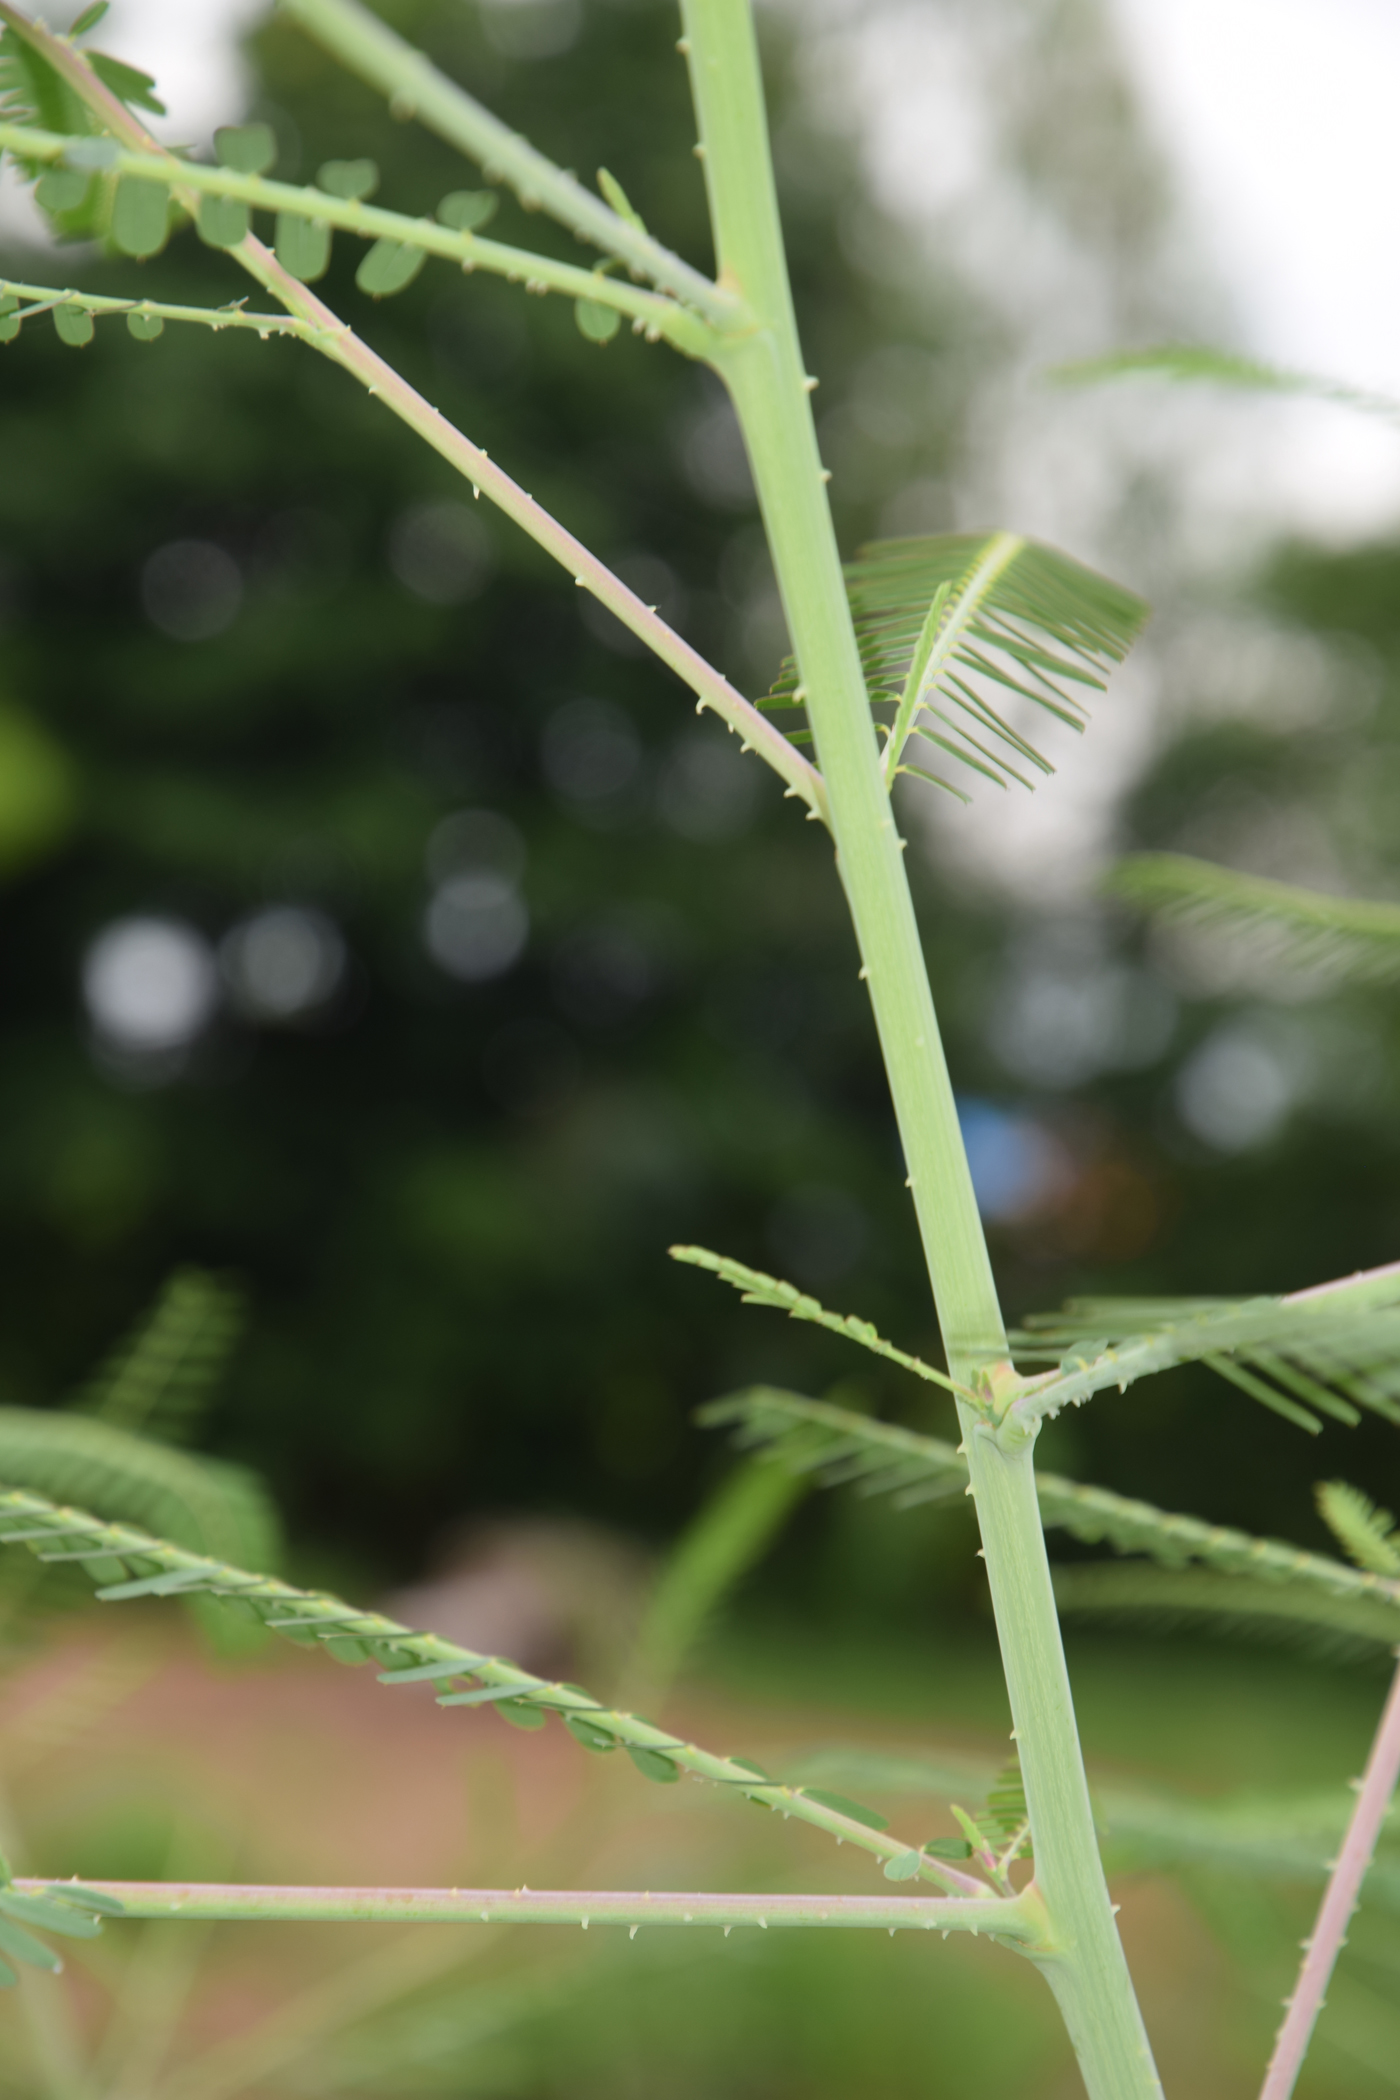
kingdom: Plantae
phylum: Tracheophyta
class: Magnoliopsida
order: Fabales
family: Fabaceae
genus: Sesbania
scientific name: Sesbania bispinosa
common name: Sesbania pea
